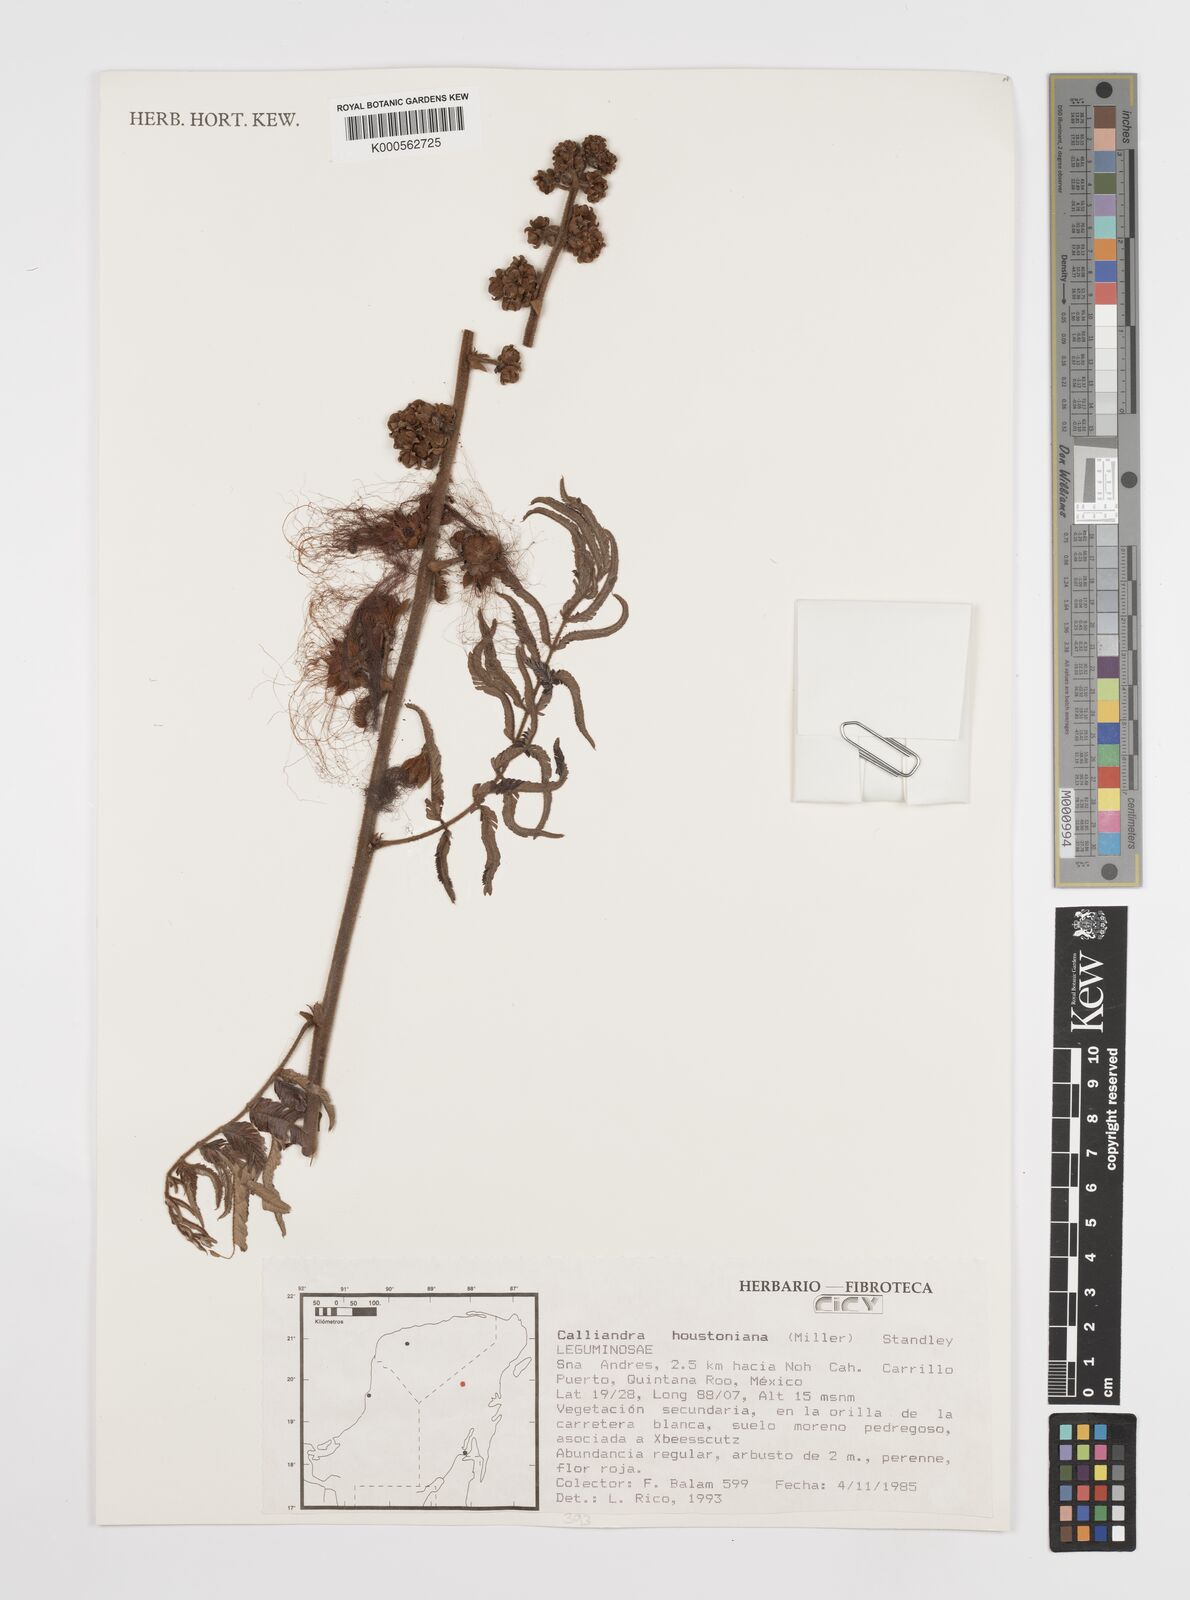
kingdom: Plantae
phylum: Tracheophyta
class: Magnoliopsida
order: Fabales
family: Fabaceae
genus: Calliandra
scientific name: Calliandra houstoniana
